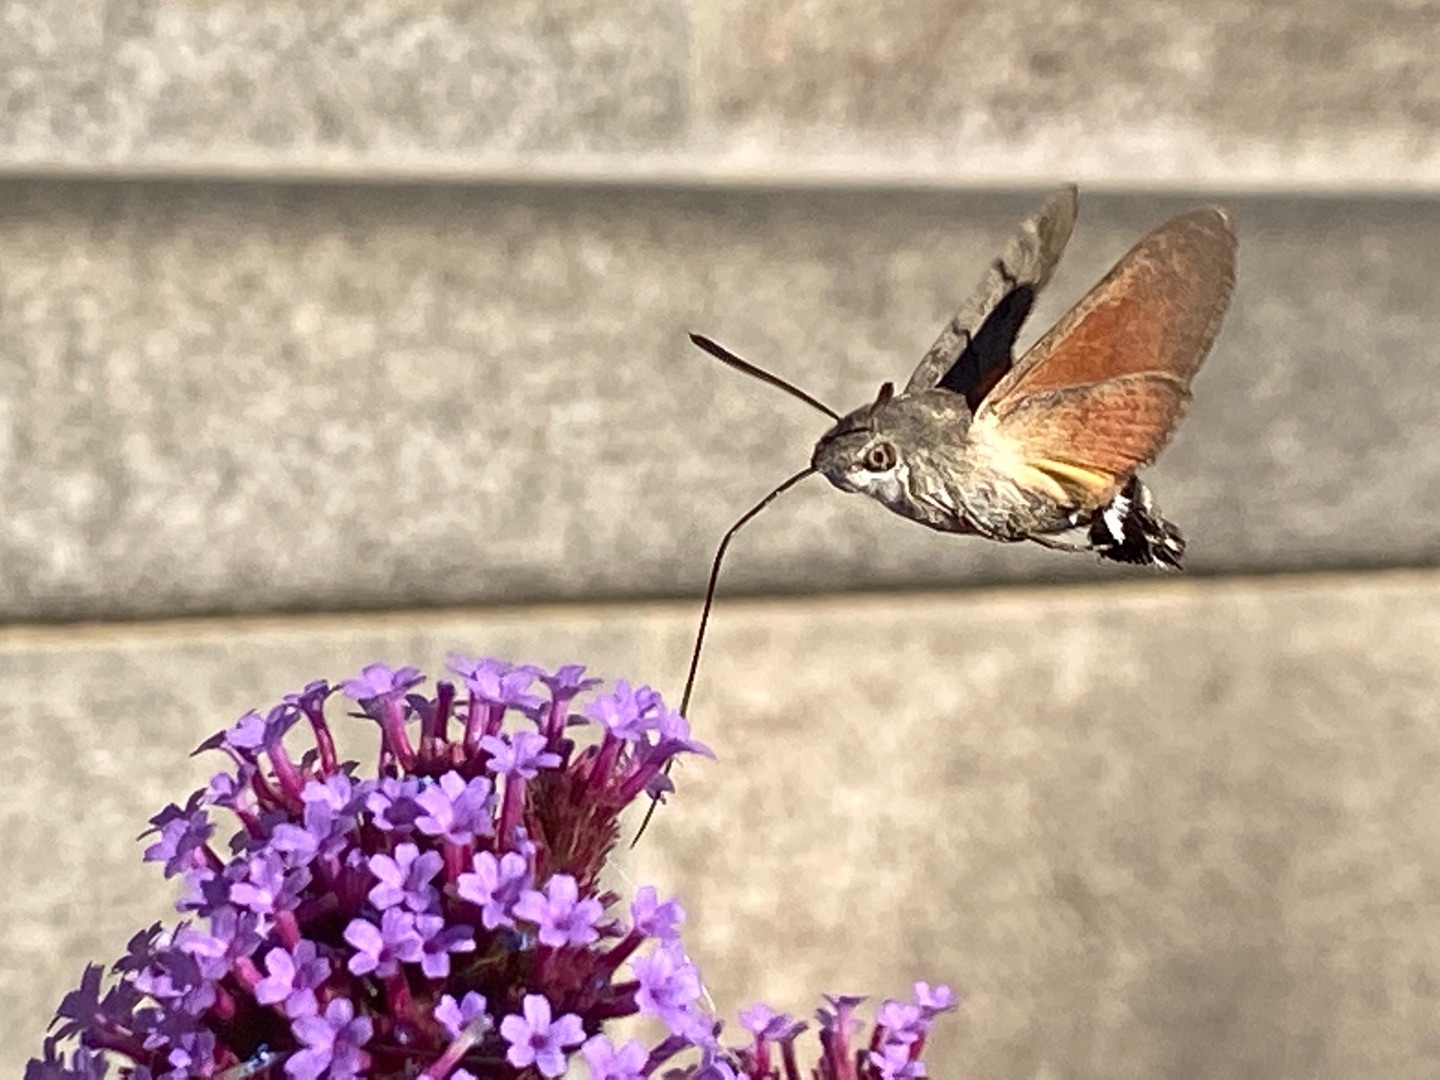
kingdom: Animalia
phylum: Arthropoda
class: Insecta
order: Lepidoptera
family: Sphingidae
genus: Macroglossum
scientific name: Macroglossum stellatarum
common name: Duehale
